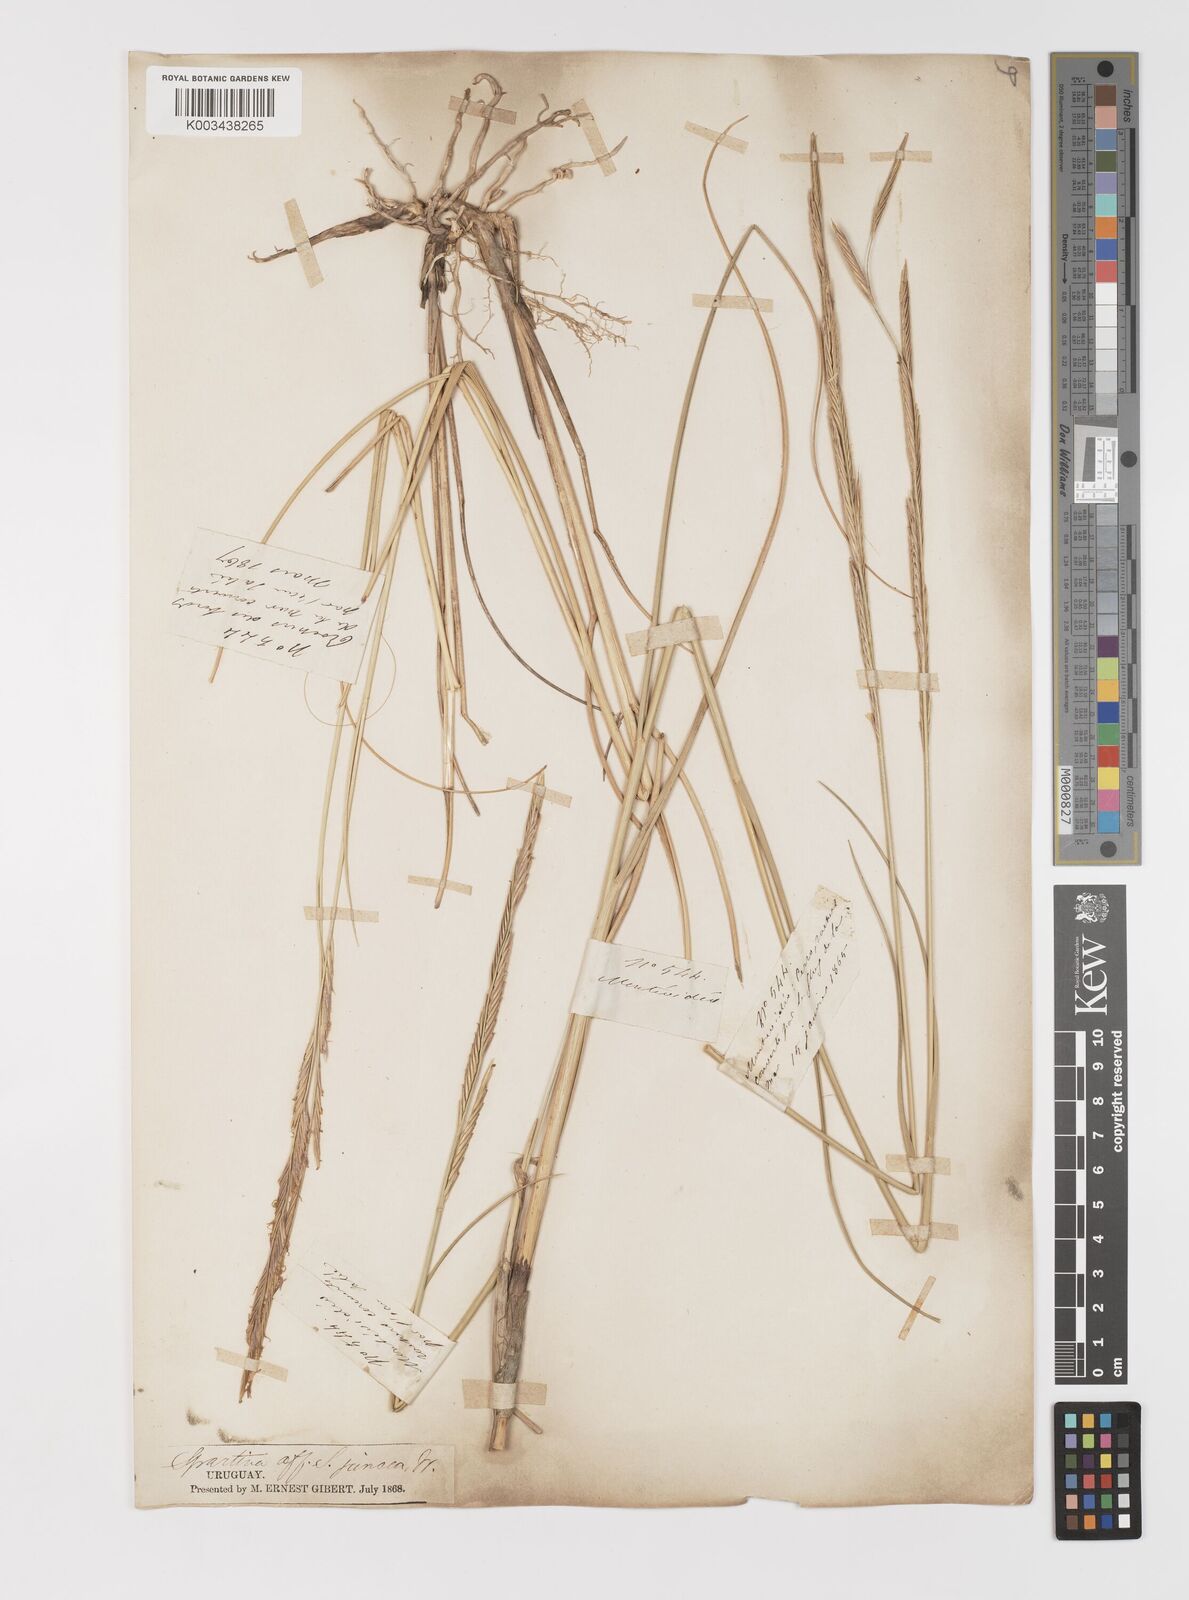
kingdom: Plantae
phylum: Tracheophyta
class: Liliopsida
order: Poales
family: Poaceae
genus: Sporobolus
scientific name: Sporobolus montevidensis
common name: Montevideo dropseed
